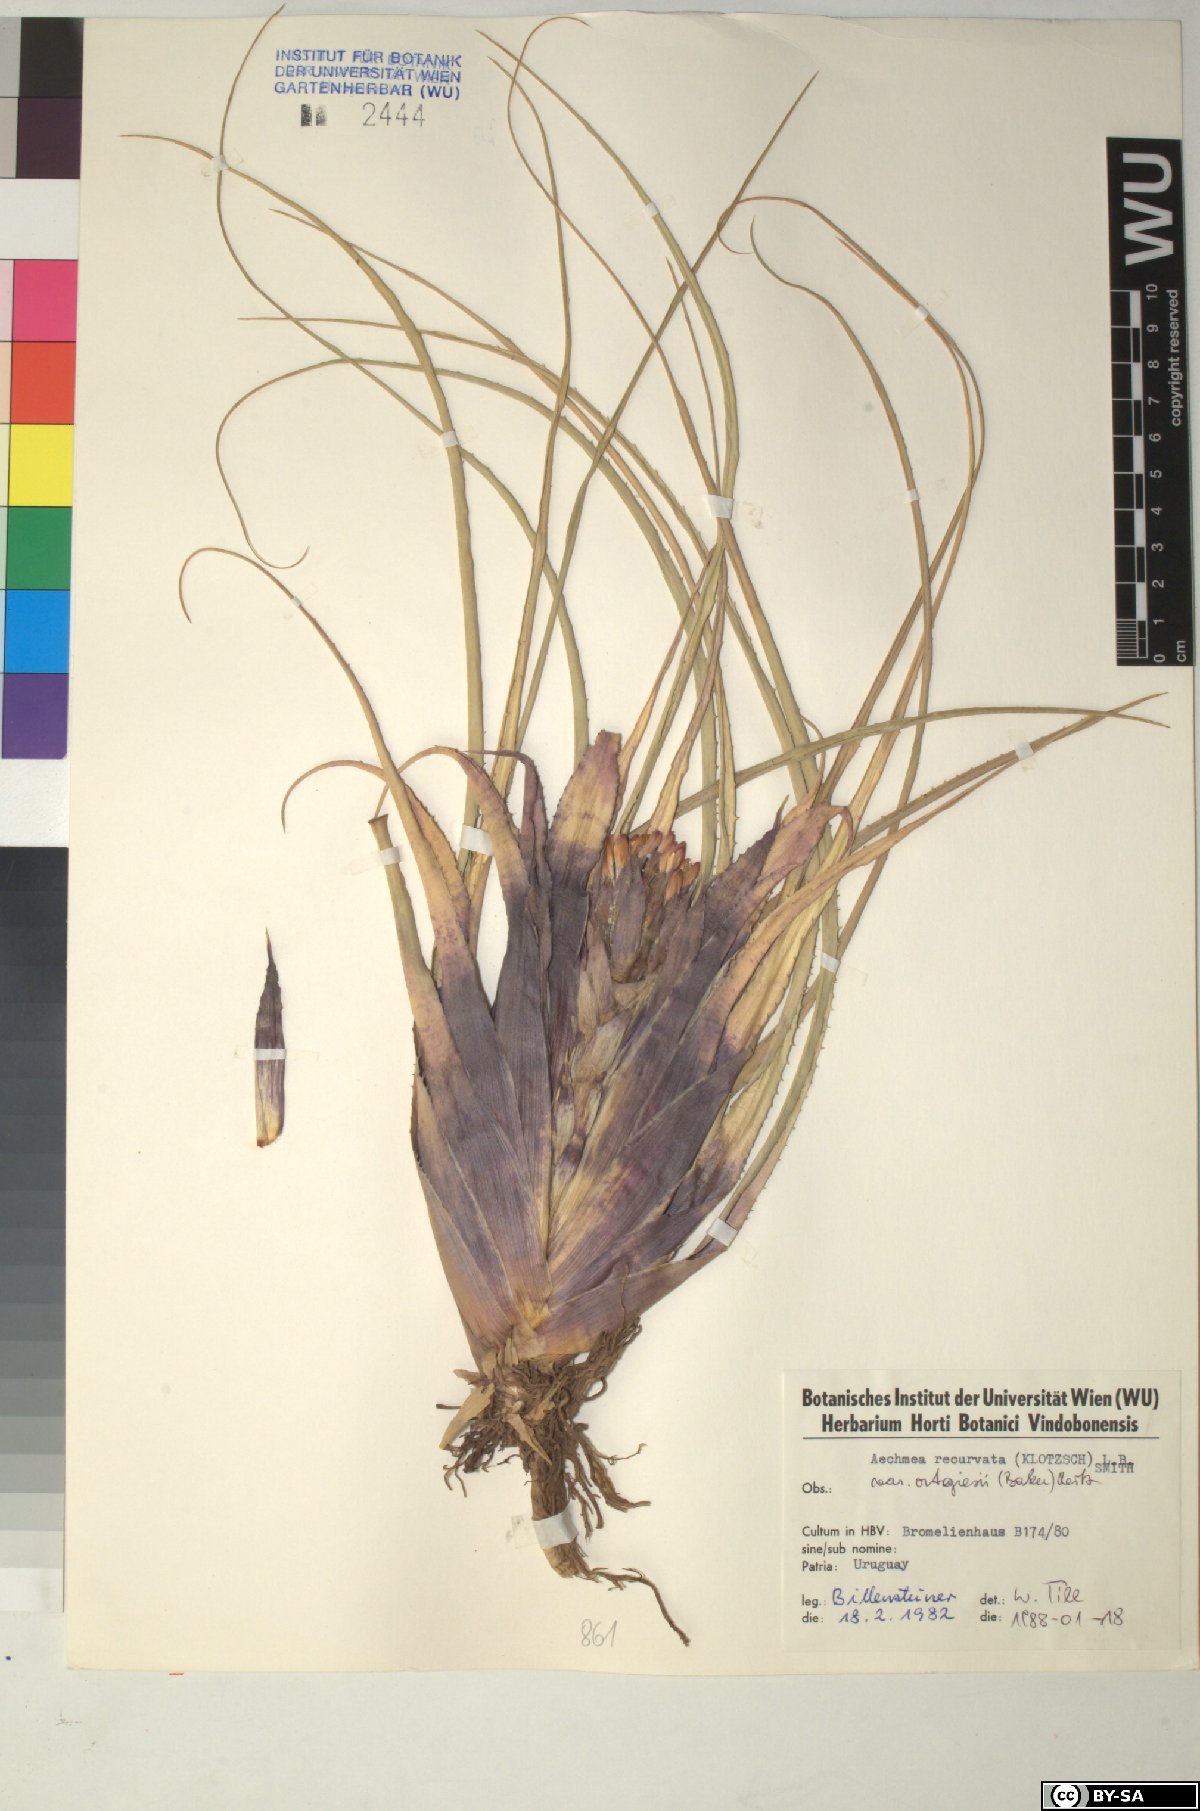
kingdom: Plantae
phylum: Tracheophyta
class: Liliopsida
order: Poales
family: Bromeliaceae
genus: Aechmea
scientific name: Aechmea recurvata
